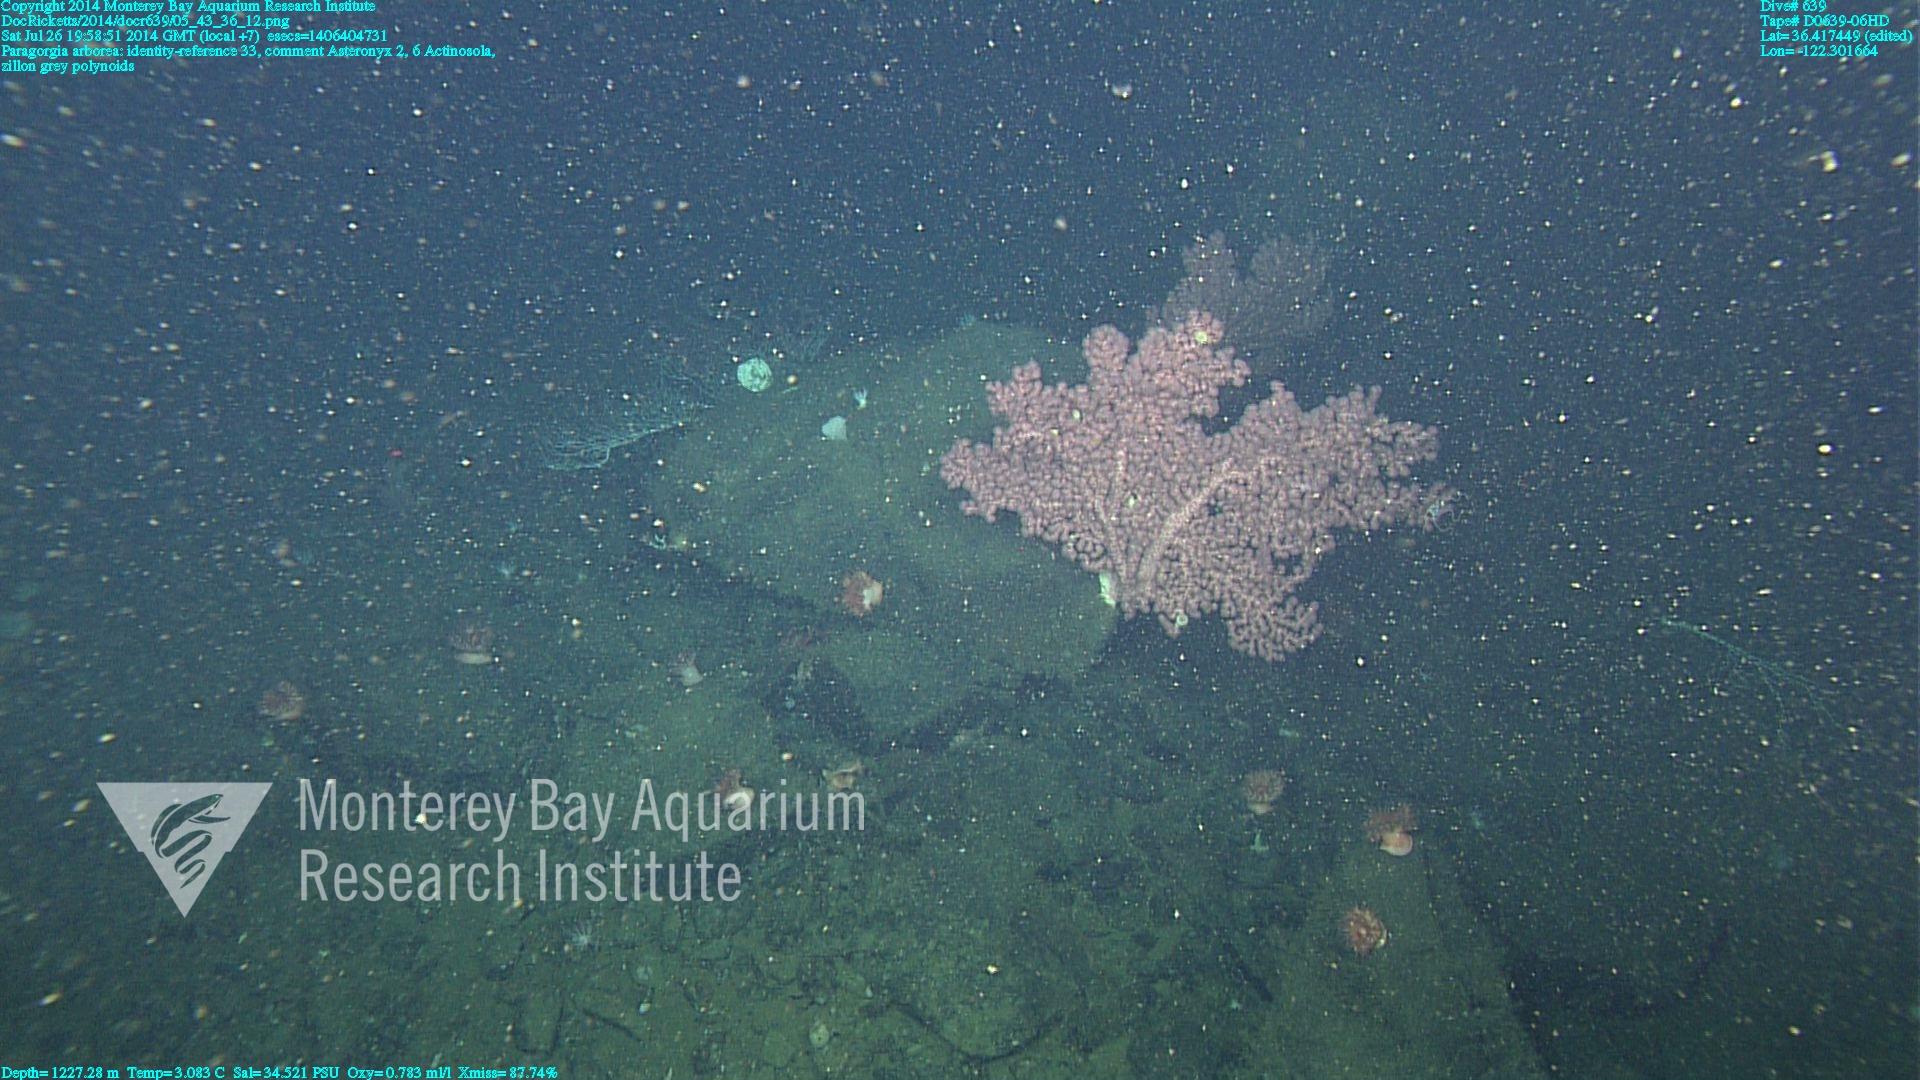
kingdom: Animalia
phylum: Cnidaria
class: Anthozoa
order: Scleralcyonacea
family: Coralliidae
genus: Paragorgia
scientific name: Paragorgia arborea
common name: Bubble gum coral
